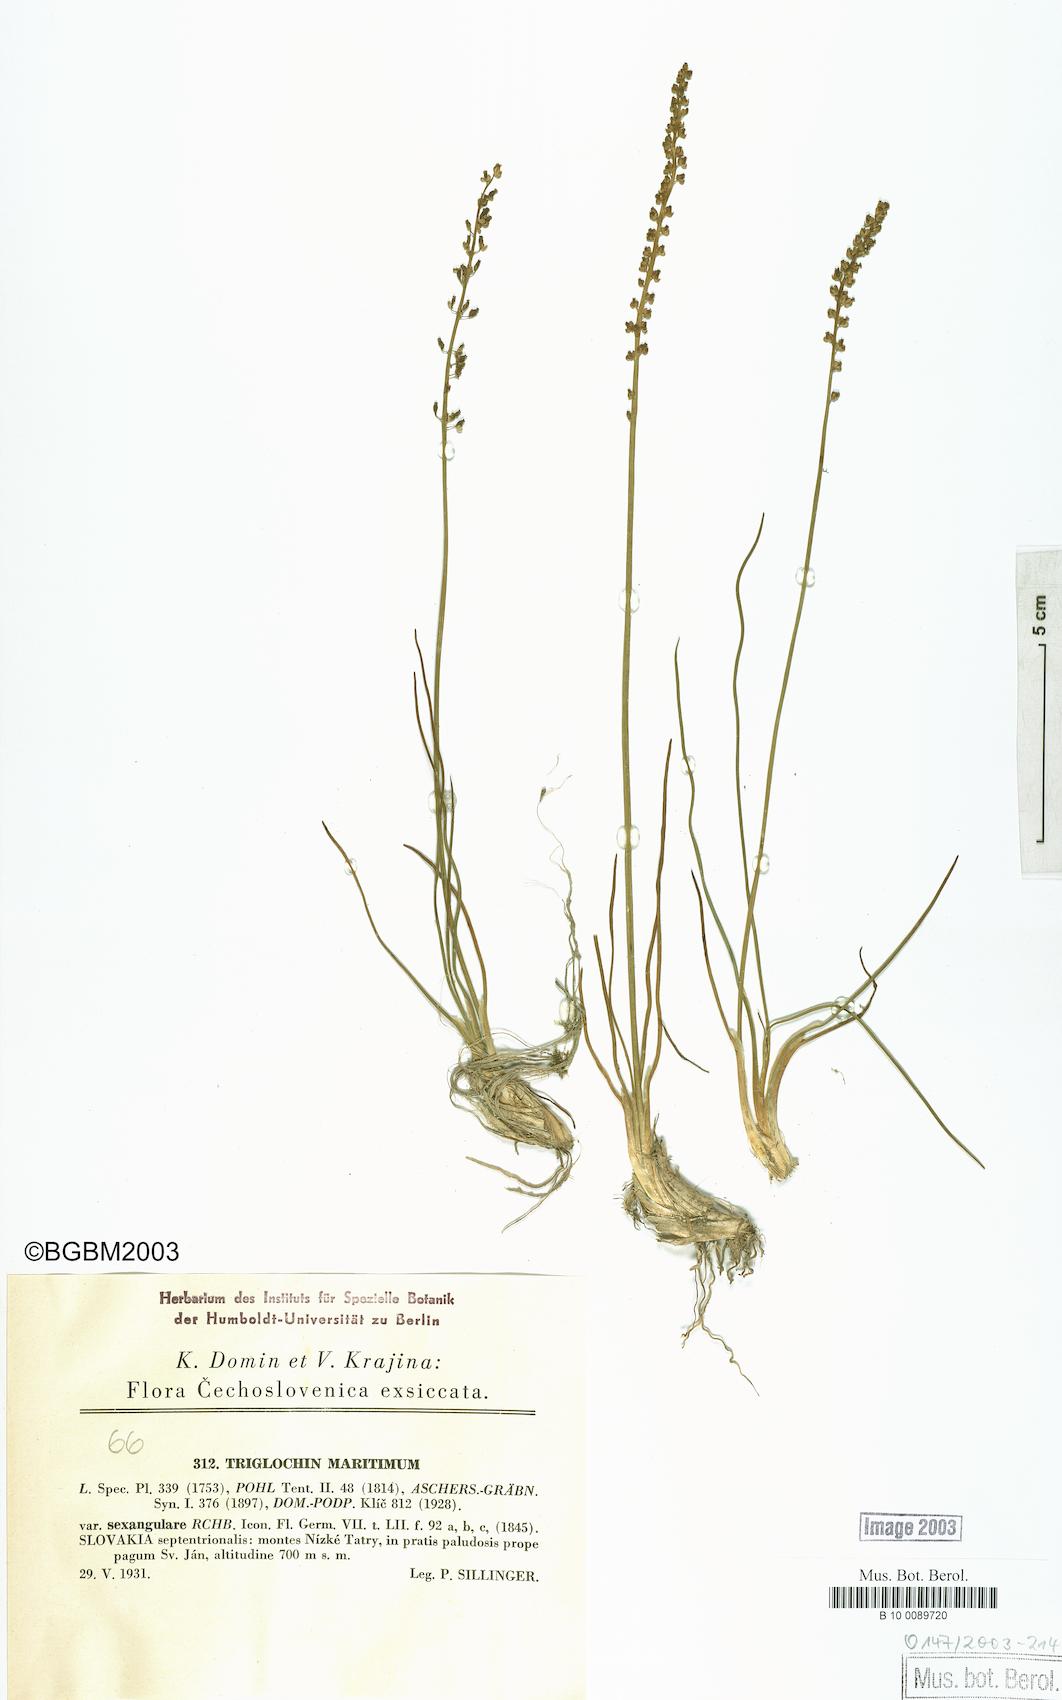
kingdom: Plantae
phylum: Tracheophyta
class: Liliopsida
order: Alismatales
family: Juncaginaceae
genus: Triglochin
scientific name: Triglochin maritima
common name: Sea arrowgrass
